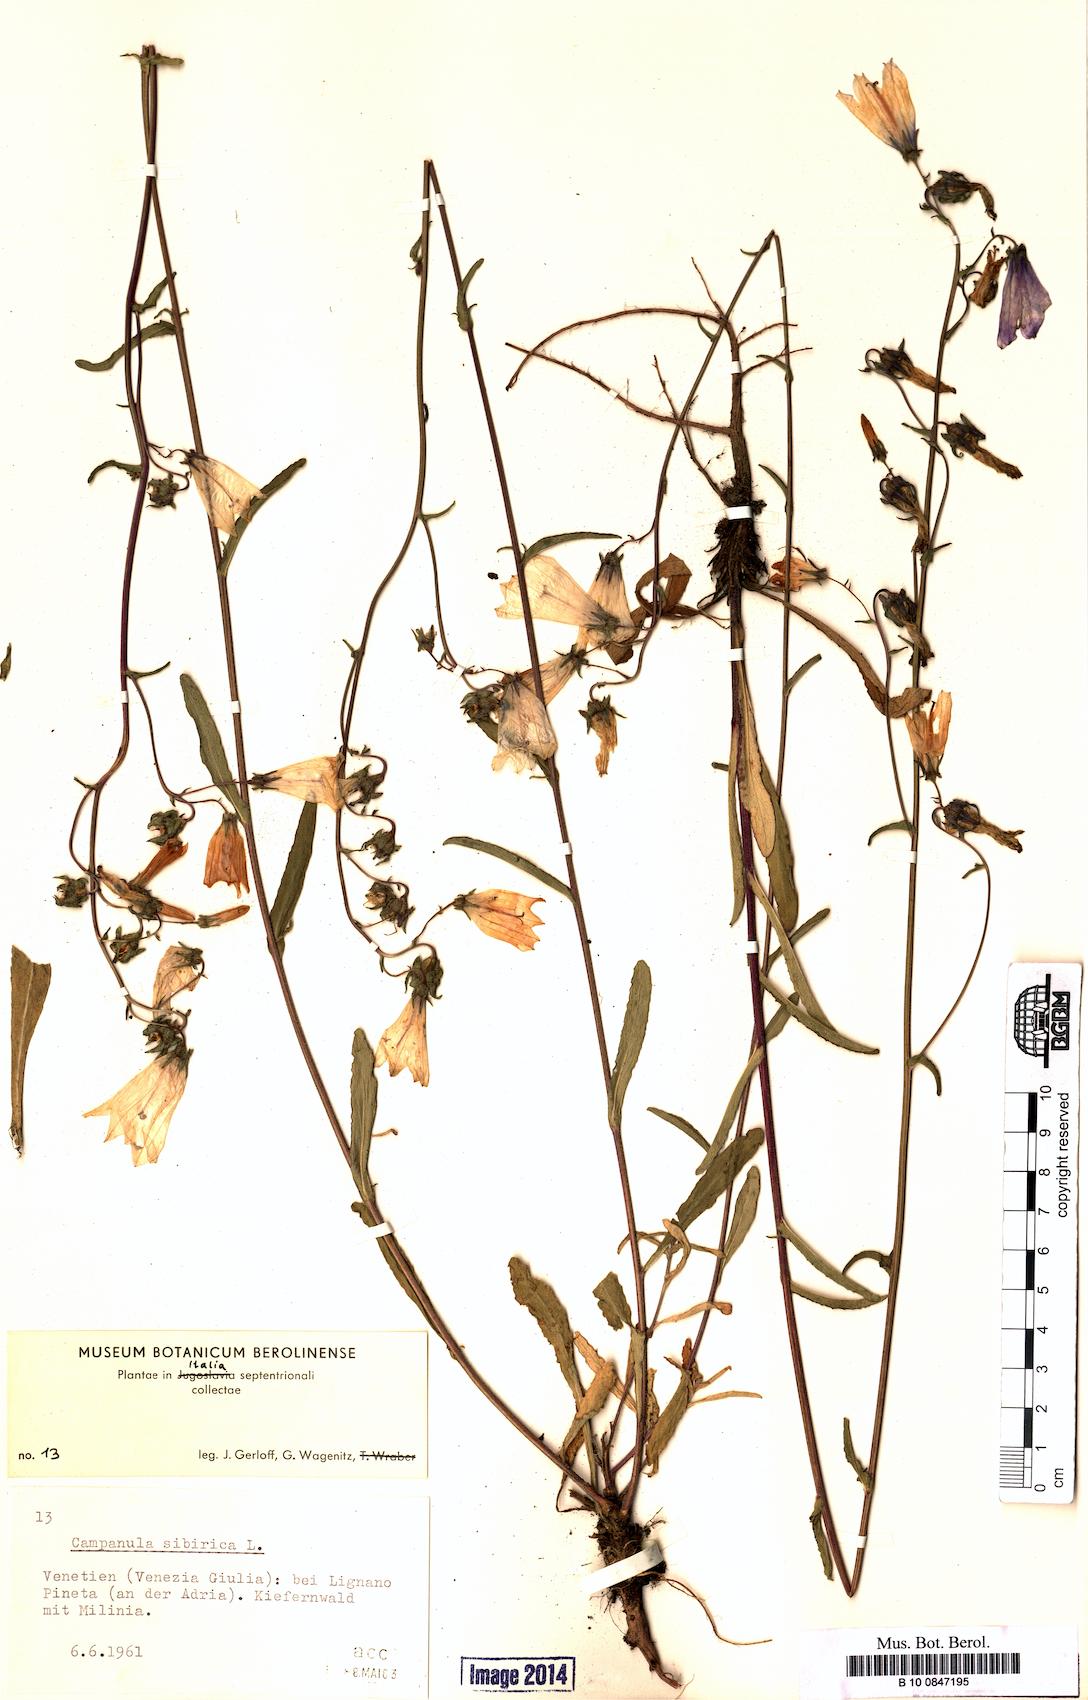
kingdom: Plantae
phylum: Tracheophyta
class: Magnoliopsida
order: Asterales
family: Campanulaceae
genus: Campanula
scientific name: Campanula sibirica
